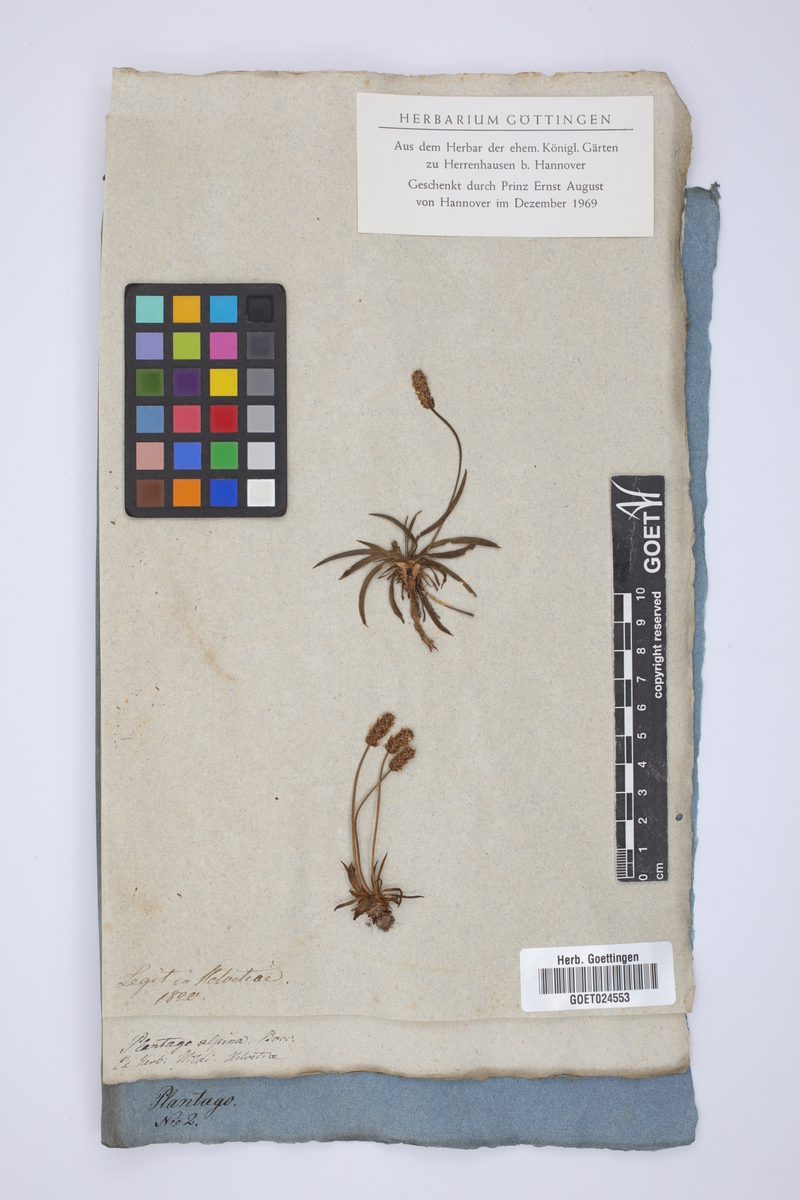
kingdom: Plantae
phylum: Tracheophyta
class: Magnoliopsida
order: Lamiales
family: Plantaginaceae
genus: Plantago
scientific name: Plantago alpina
